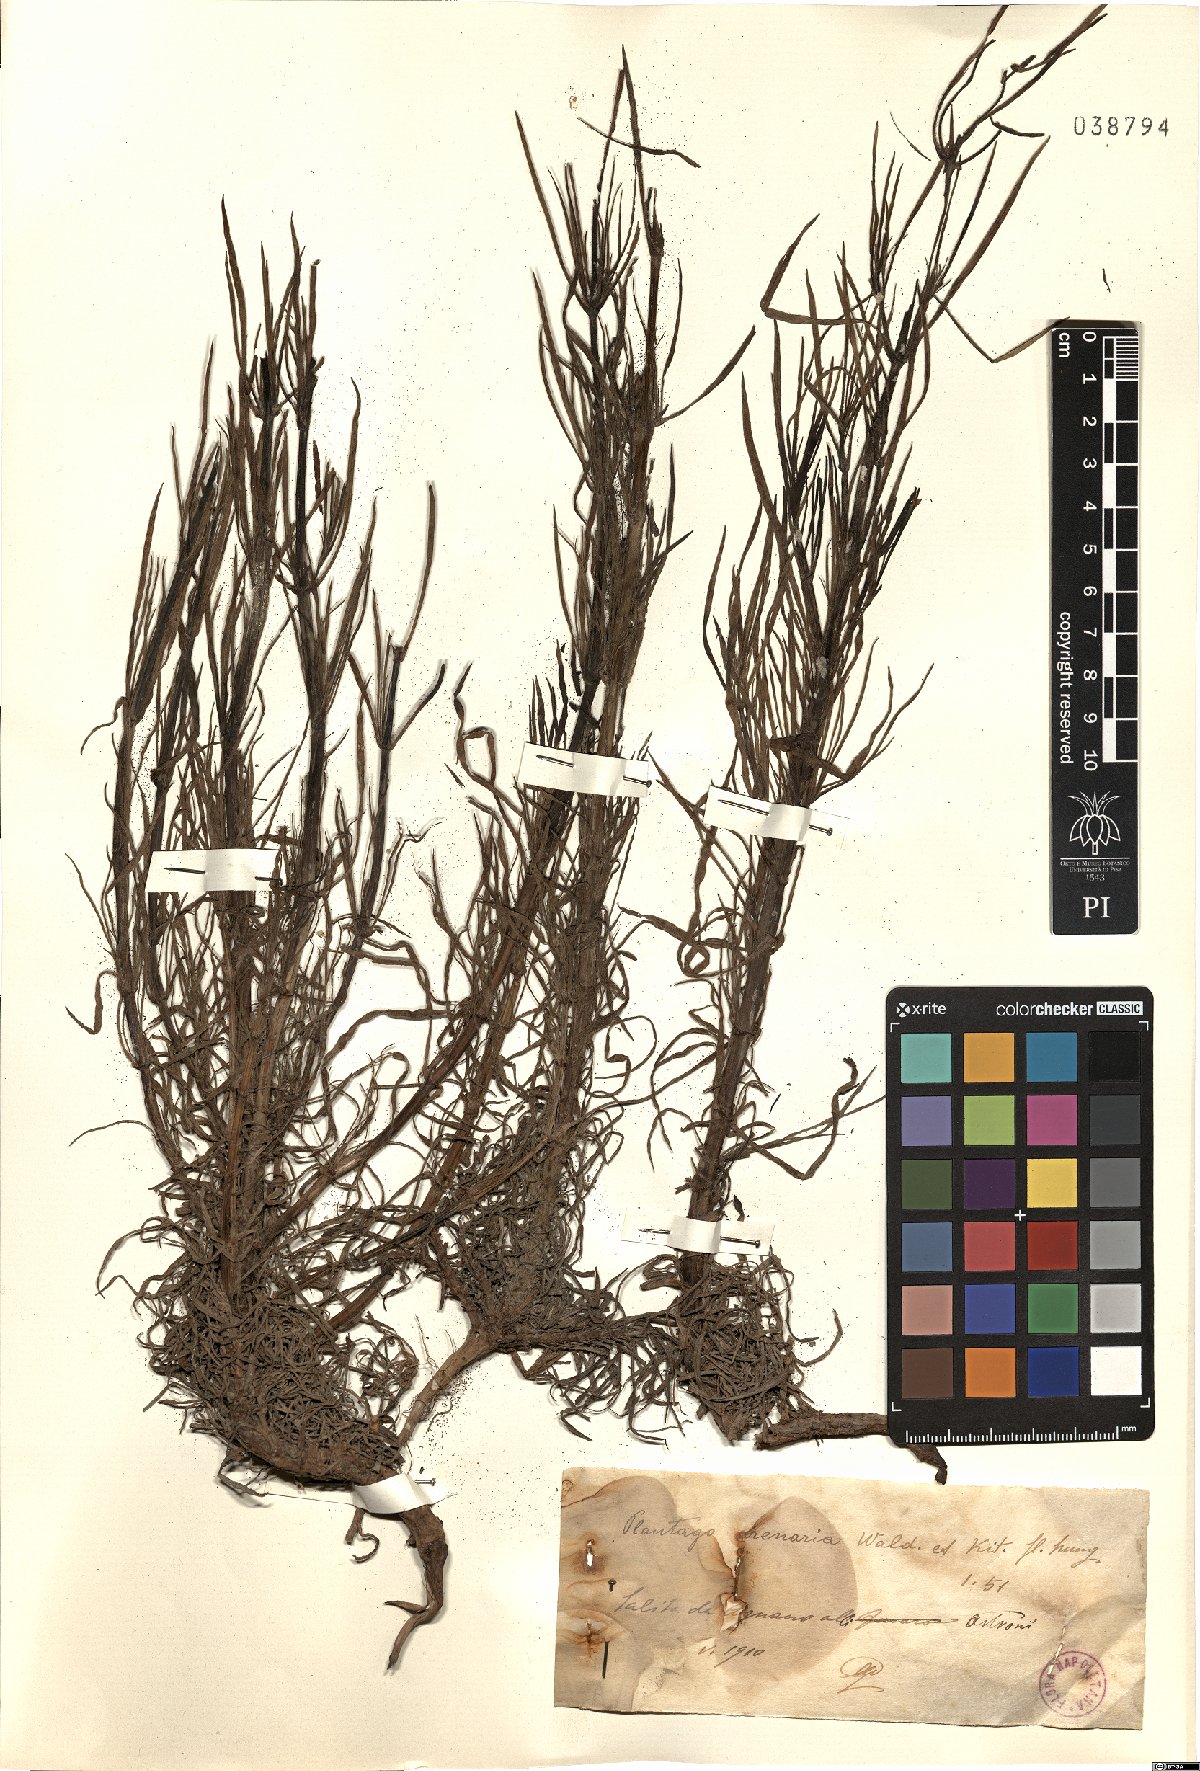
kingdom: Plantae
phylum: Tracheophyta
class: Magnoliopsida
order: Lamiales
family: Plantaginaceae
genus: Plantago
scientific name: Plantago arenaria
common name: Branched plantain
